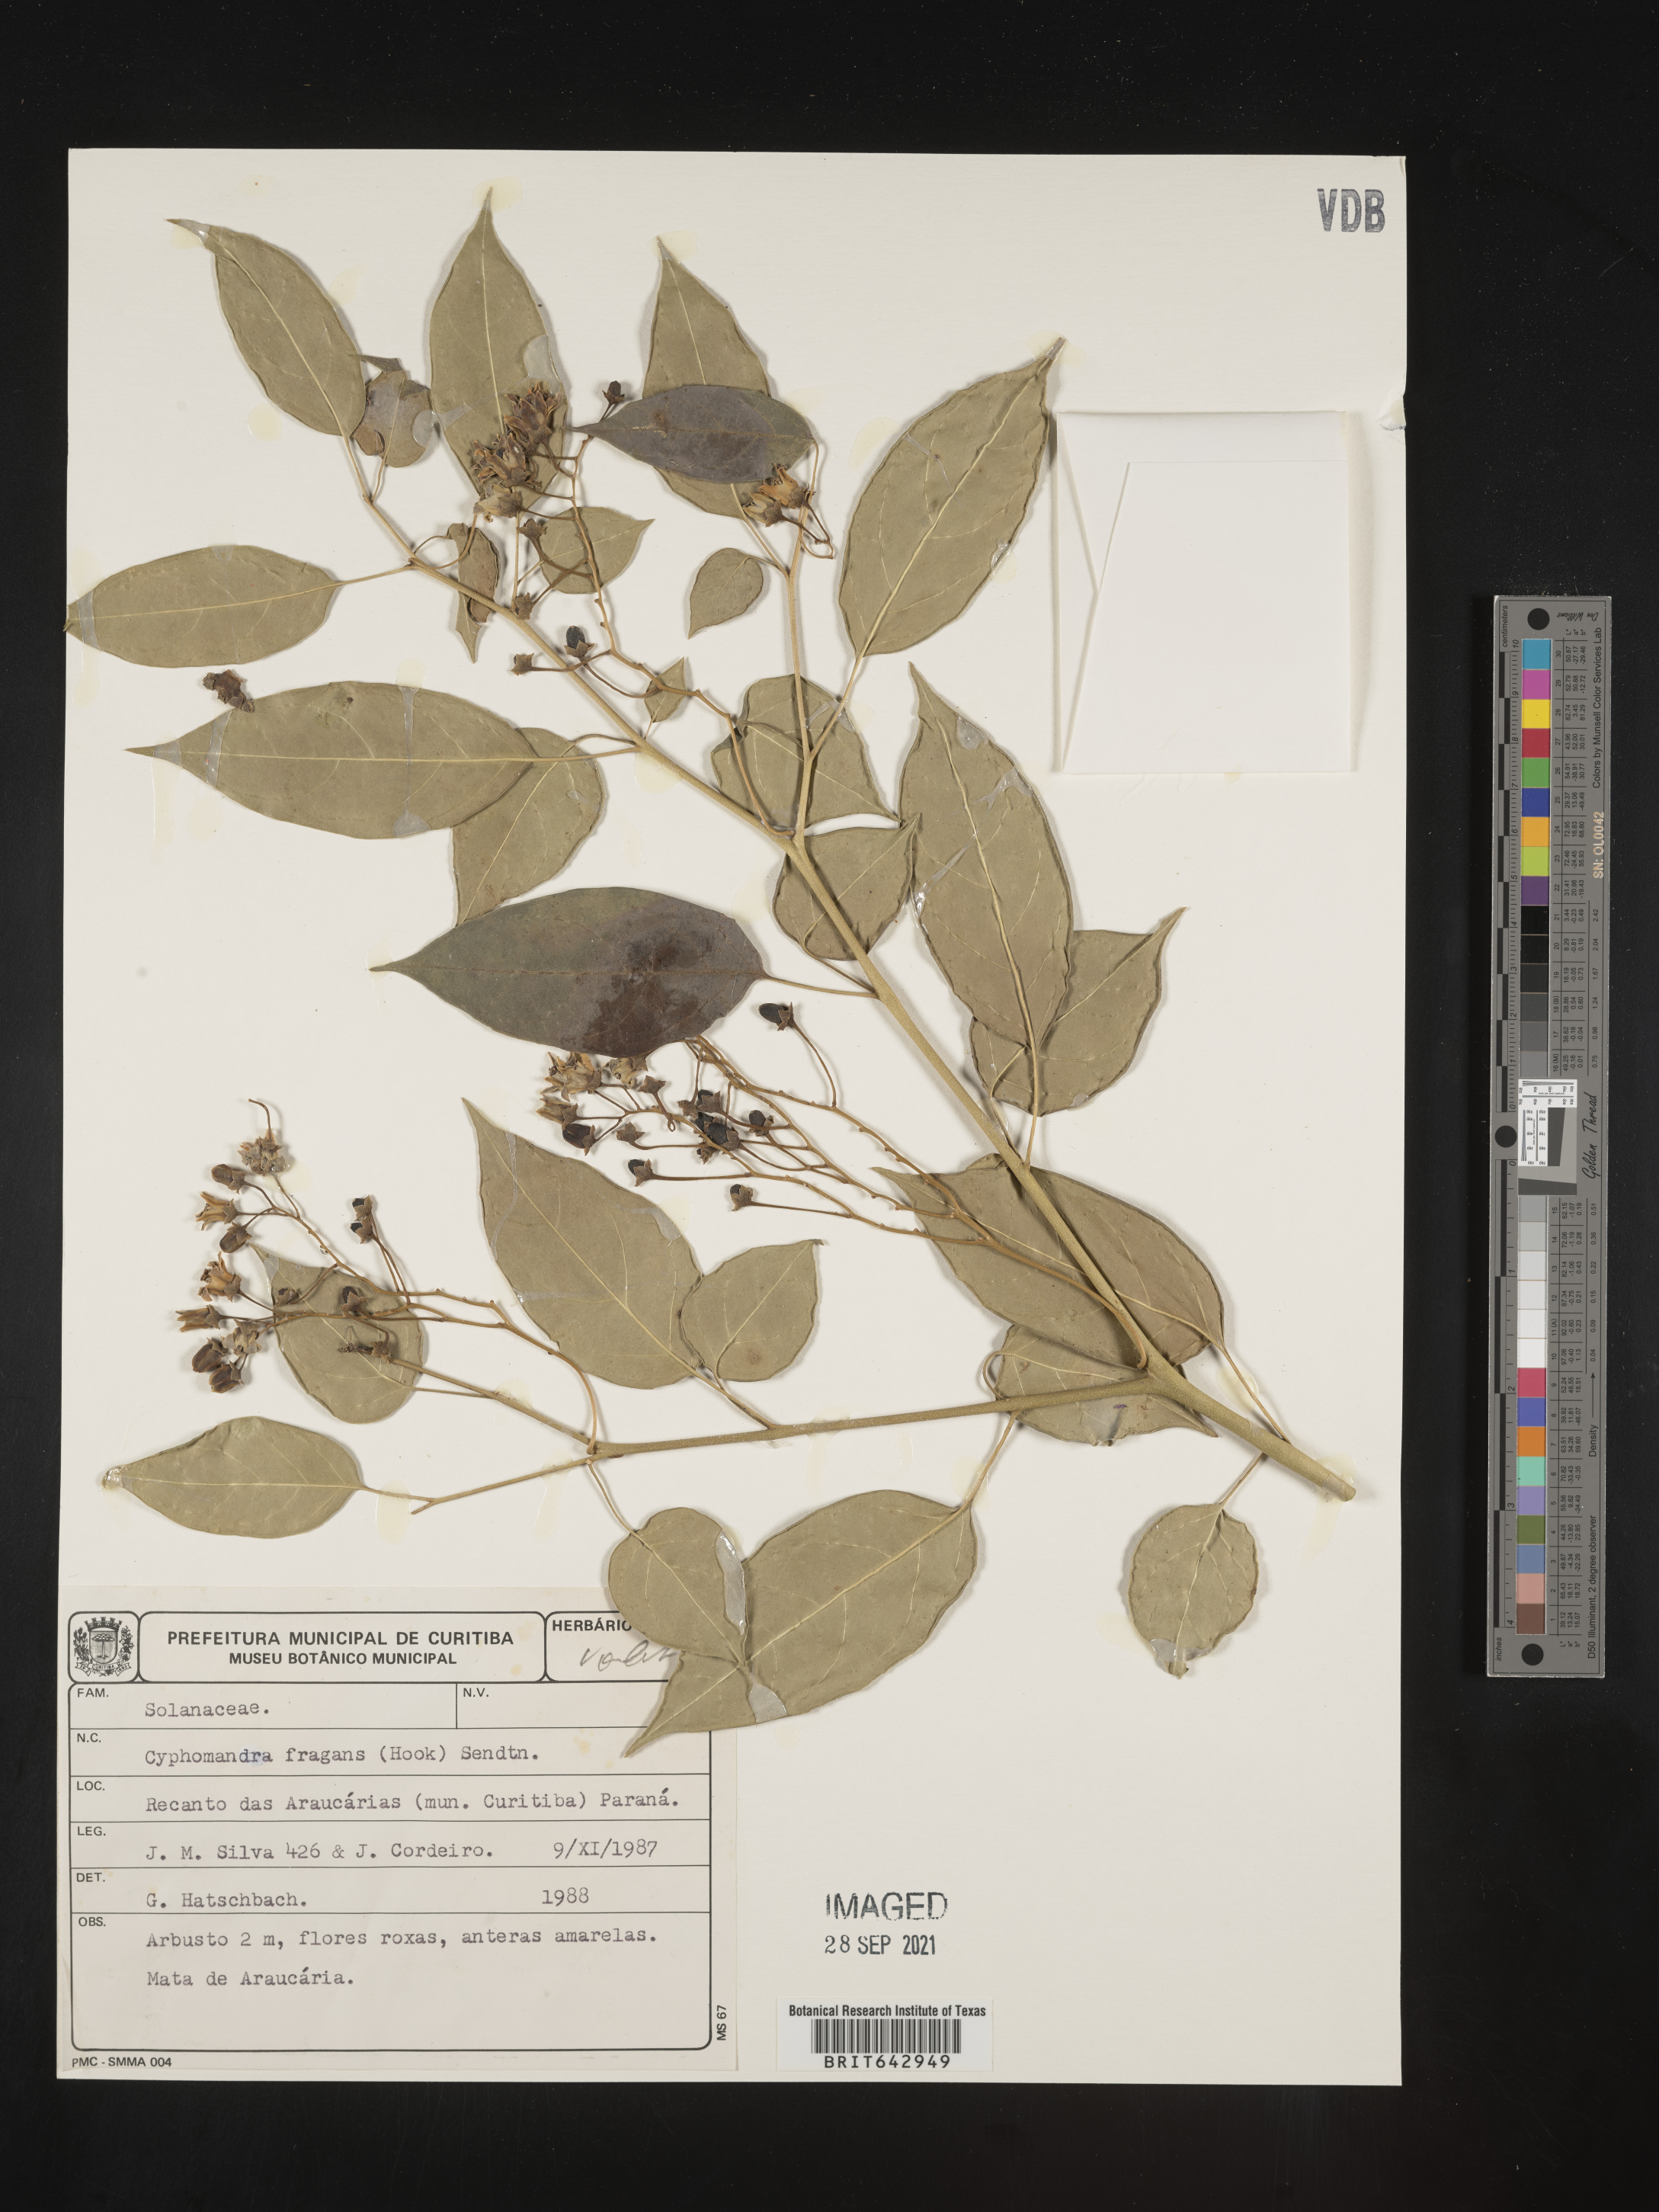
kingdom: Plantae
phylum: Tracheophyta
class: Magnoliopsida
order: Solanales
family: Solanaceae
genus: Solanum
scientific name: Solanum
